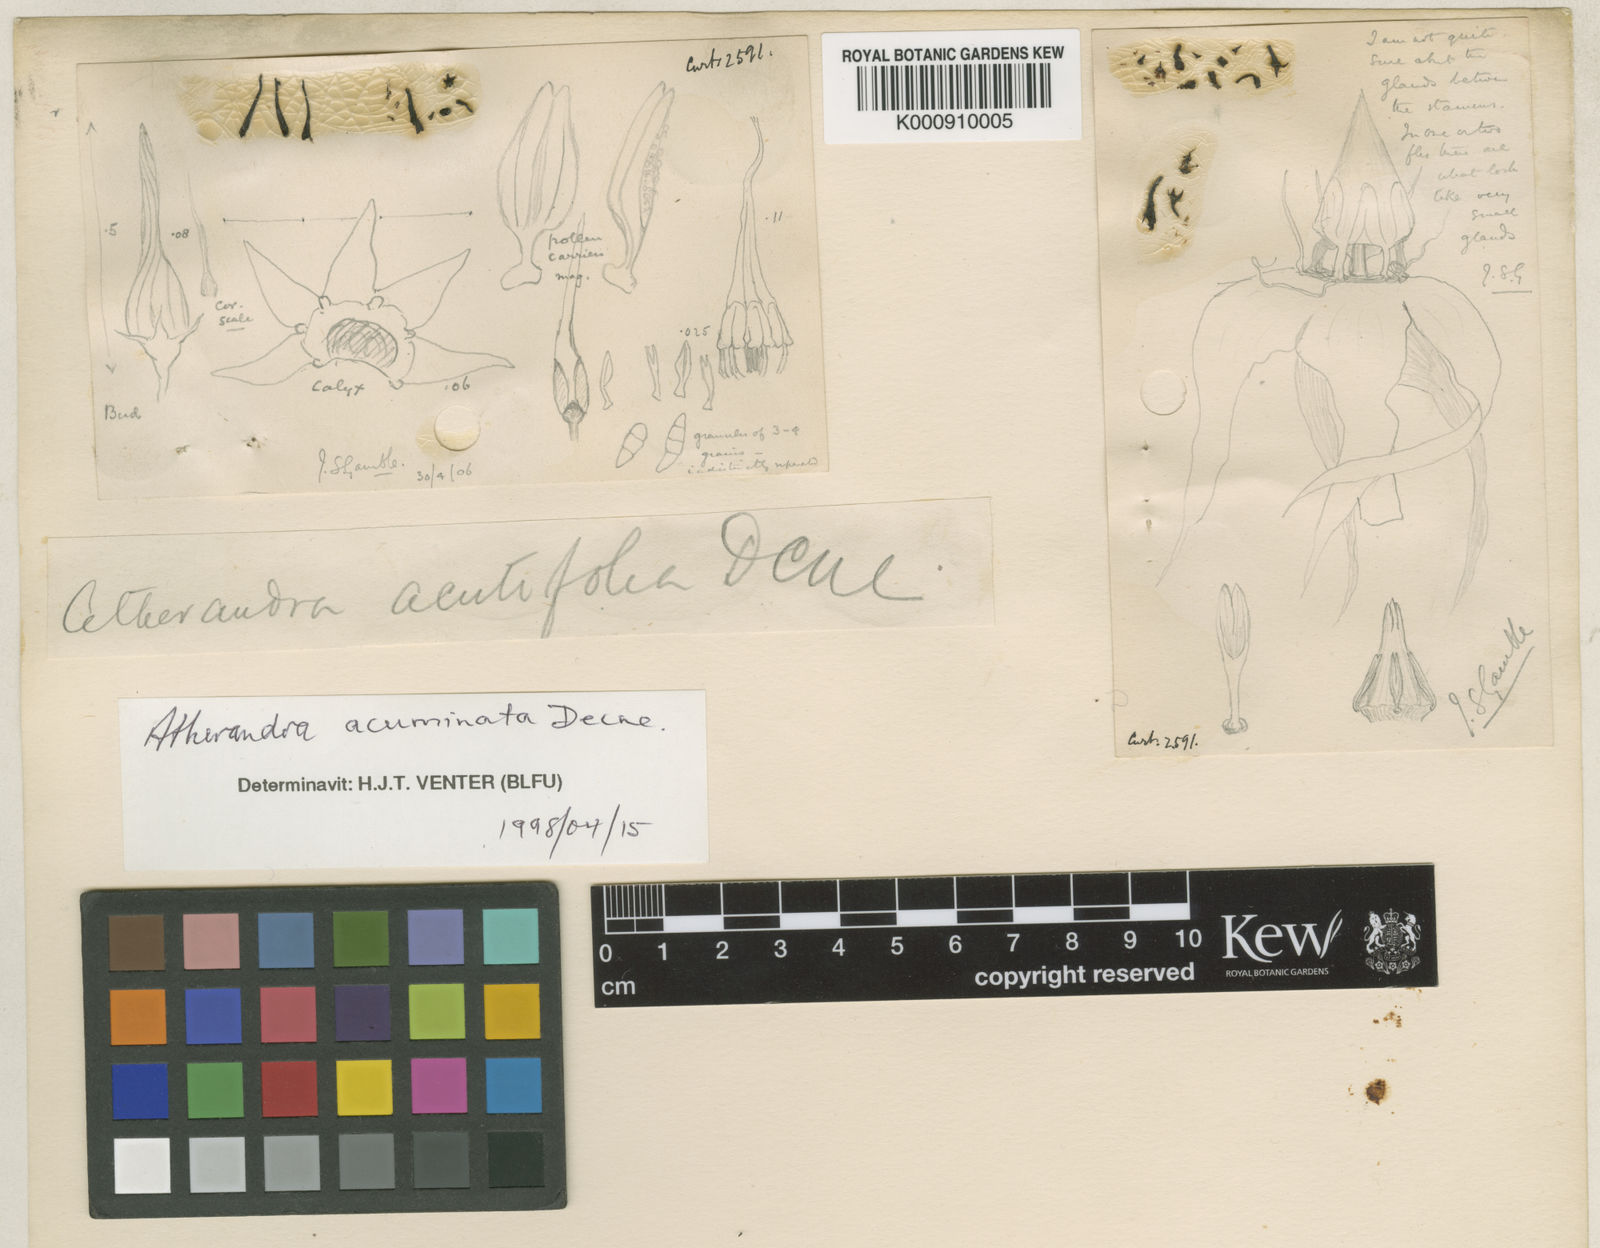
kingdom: Plantae
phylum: Tracheophyta
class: Magnoliopsida
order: Gentianales
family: Apocynaceae
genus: Atherandra
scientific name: Atherandra acutifolia
